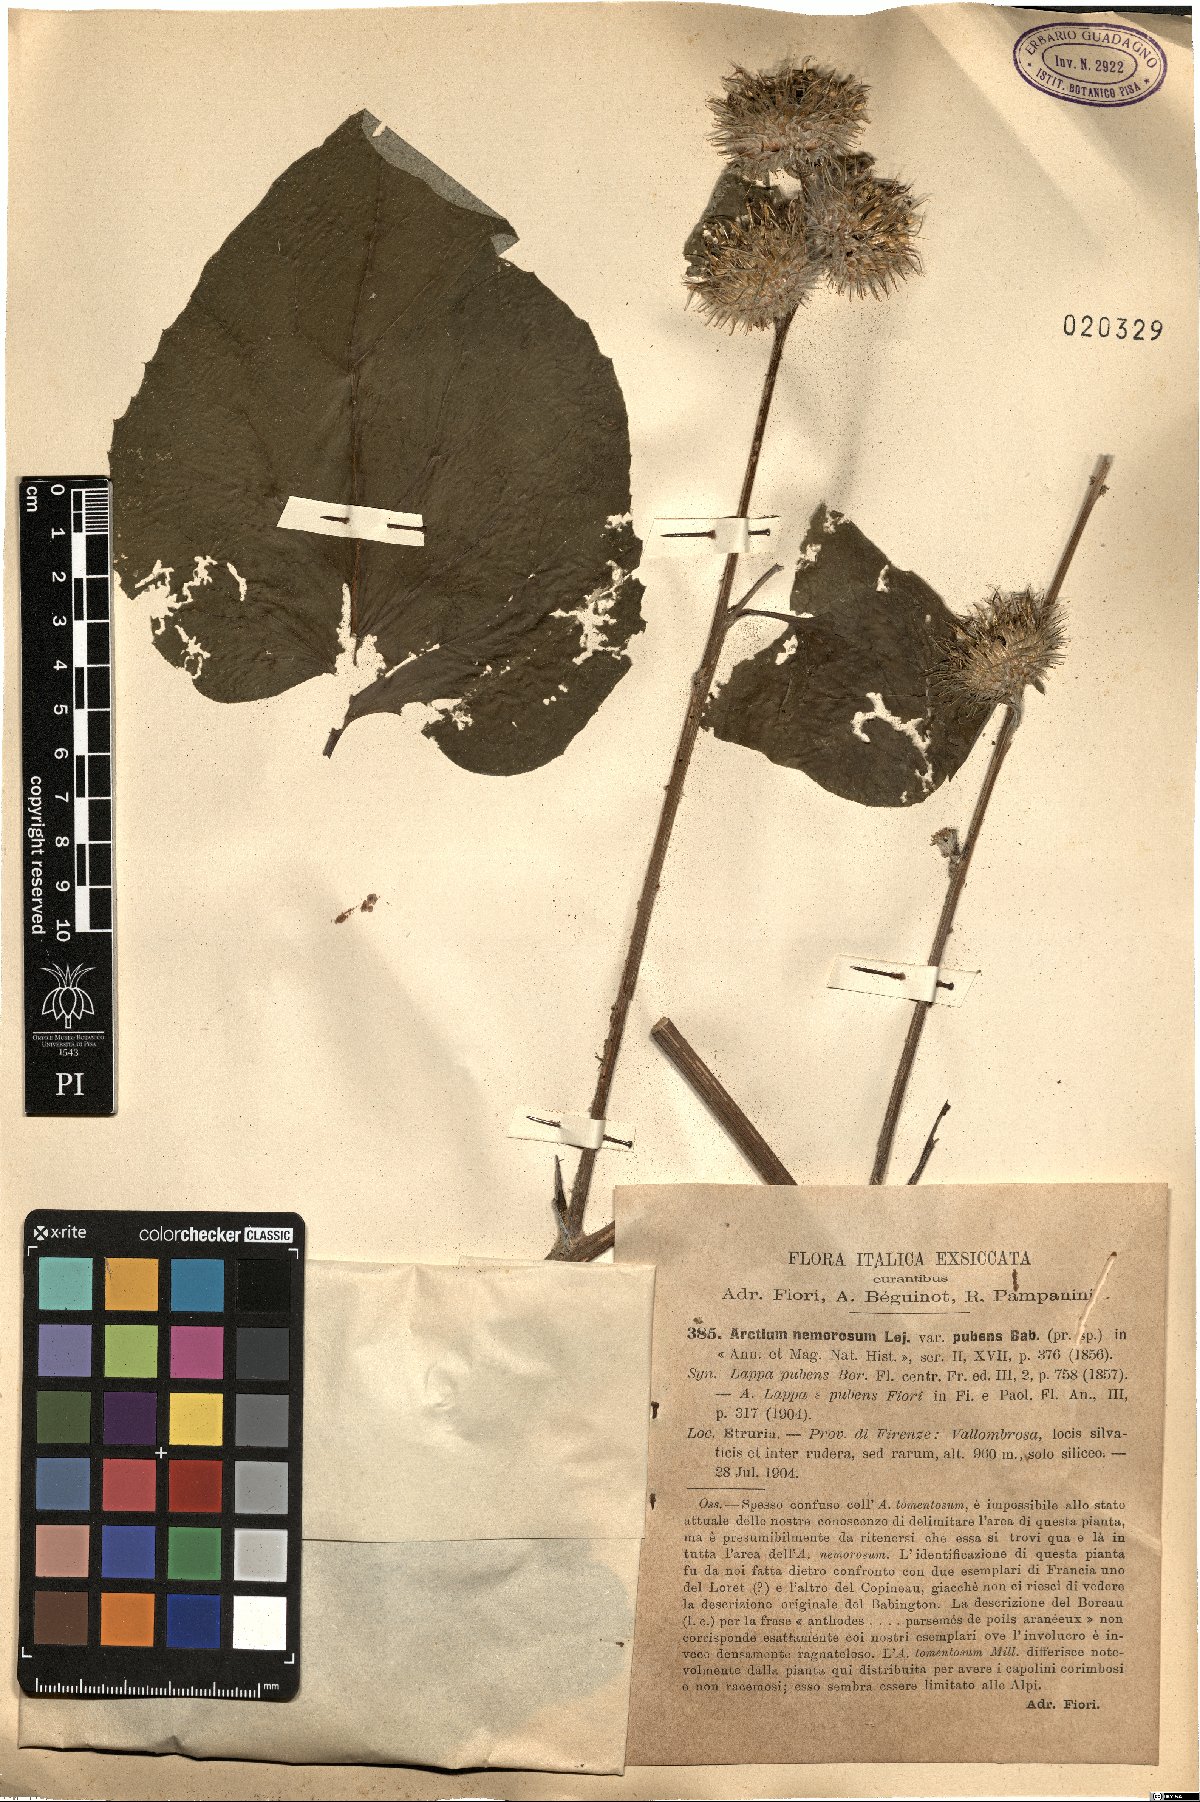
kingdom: Plantae
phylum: Tracheophyta
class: Magnoliopsida
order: Asterales
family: Asteraceae
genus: Arctium
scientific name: Arctium minus
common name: Lesser burdock
